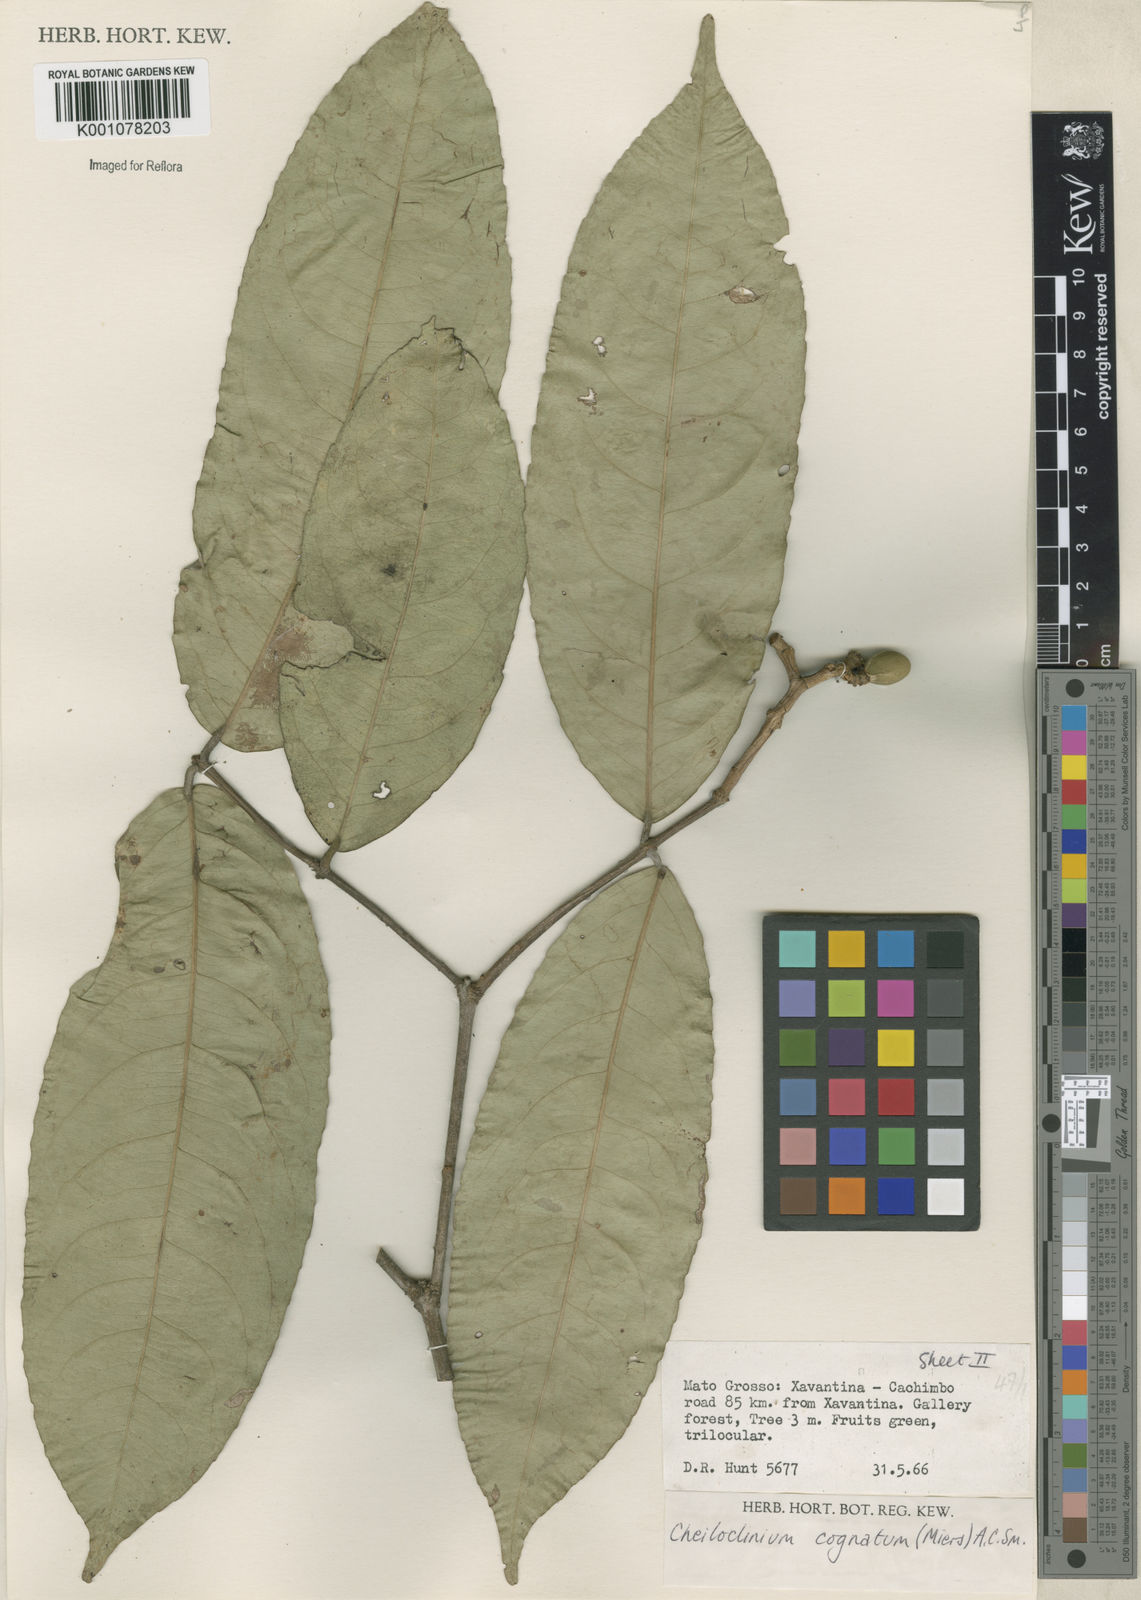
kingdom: Plantae
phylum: Tracheophyta
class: Magnoliopsida
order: Celastrales
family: Celastraceae
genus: Cheiloclinium
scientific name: Cheiloclinium cognatum
